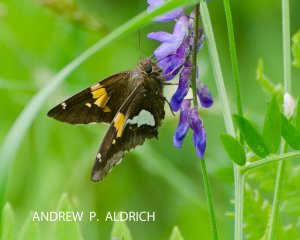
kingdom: Animalia
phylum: Arthropoda
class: Insecta
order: Lepidoptera
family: Hesperiidae
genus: Epargyreus
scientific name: Epargyreus clarus
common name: Silver-spotted Skipper
